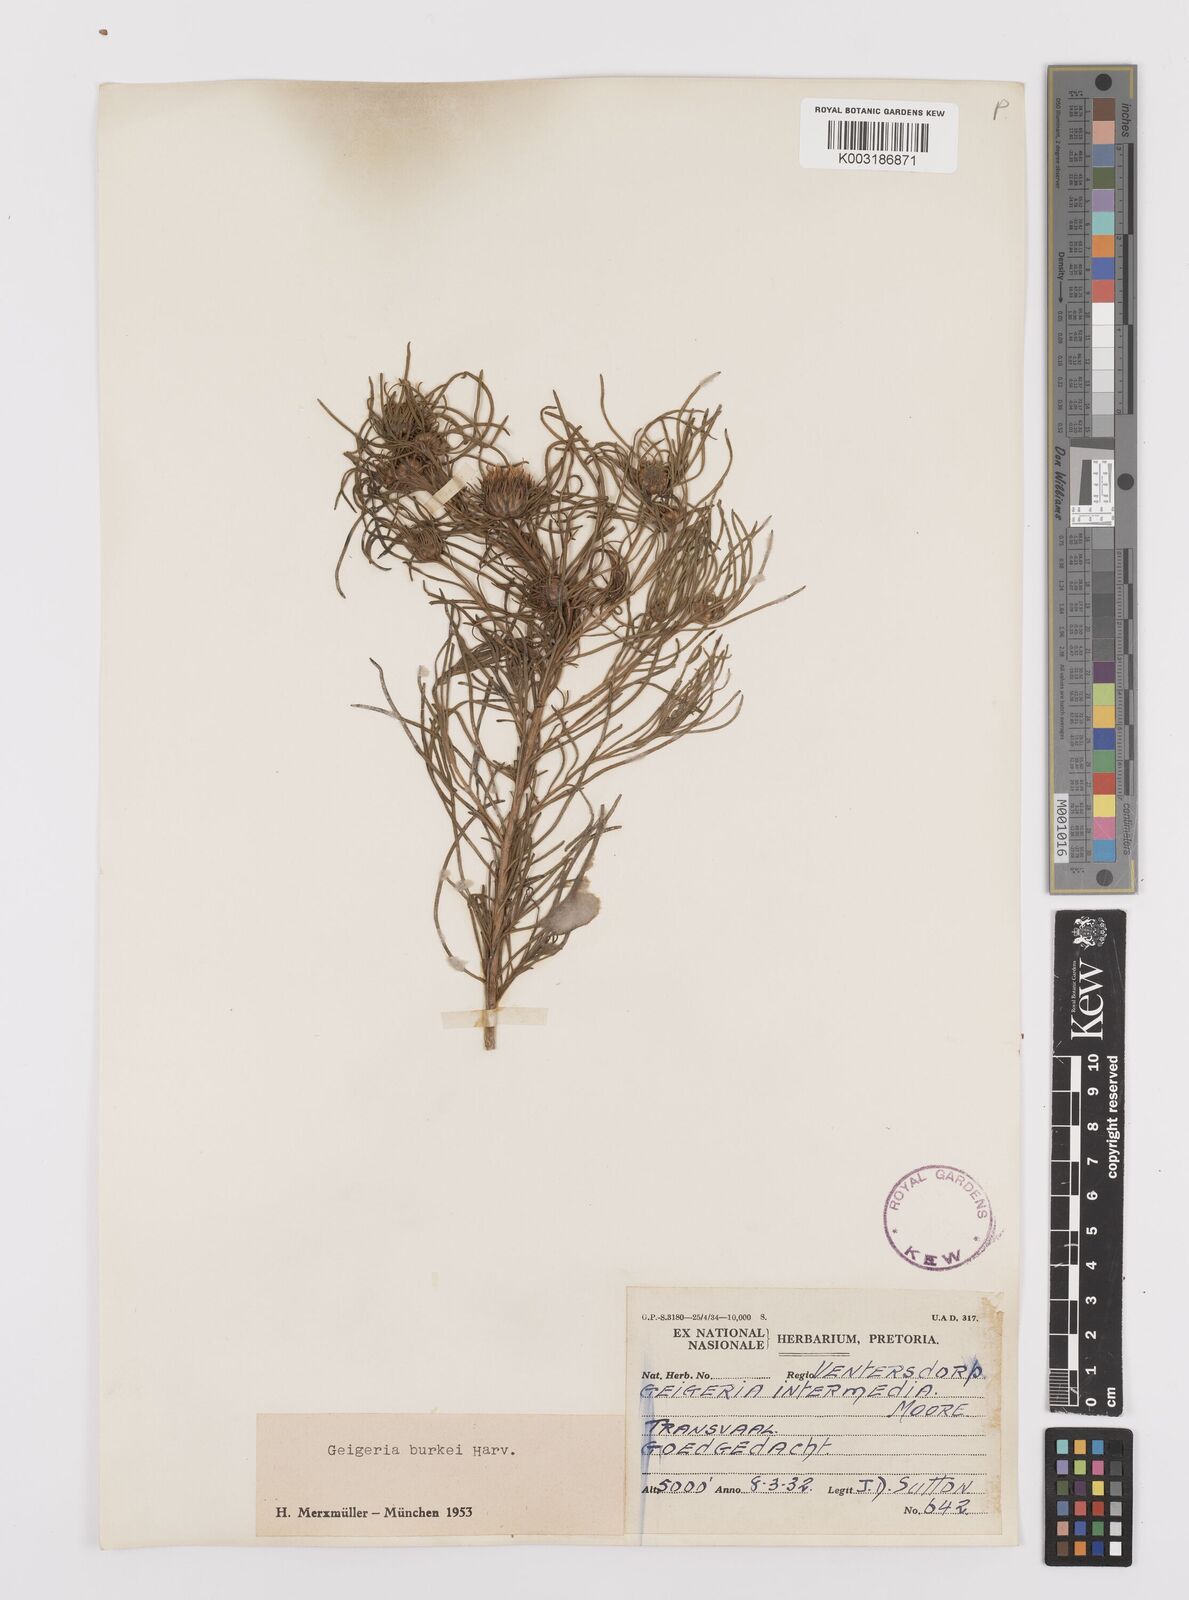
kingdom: Plantae
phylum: Tracheophyta
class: Magnoliopsida
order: Asterales
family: Asteraceae
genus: Geigeria
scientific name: Geigeria burkei
